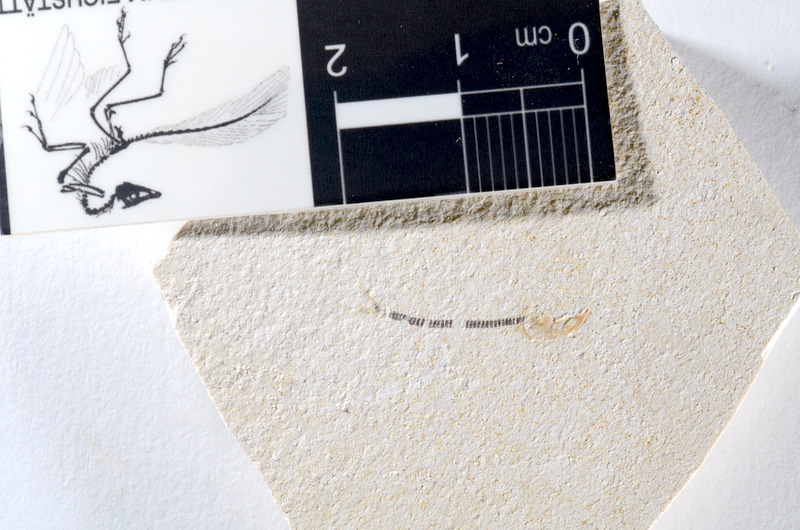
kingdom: Animalia
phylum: Chordata
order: Salmoniformes
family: Orthogonikleithridae
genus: Orthogonikleithrus
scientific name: Orthogonikleithrus hoelli
